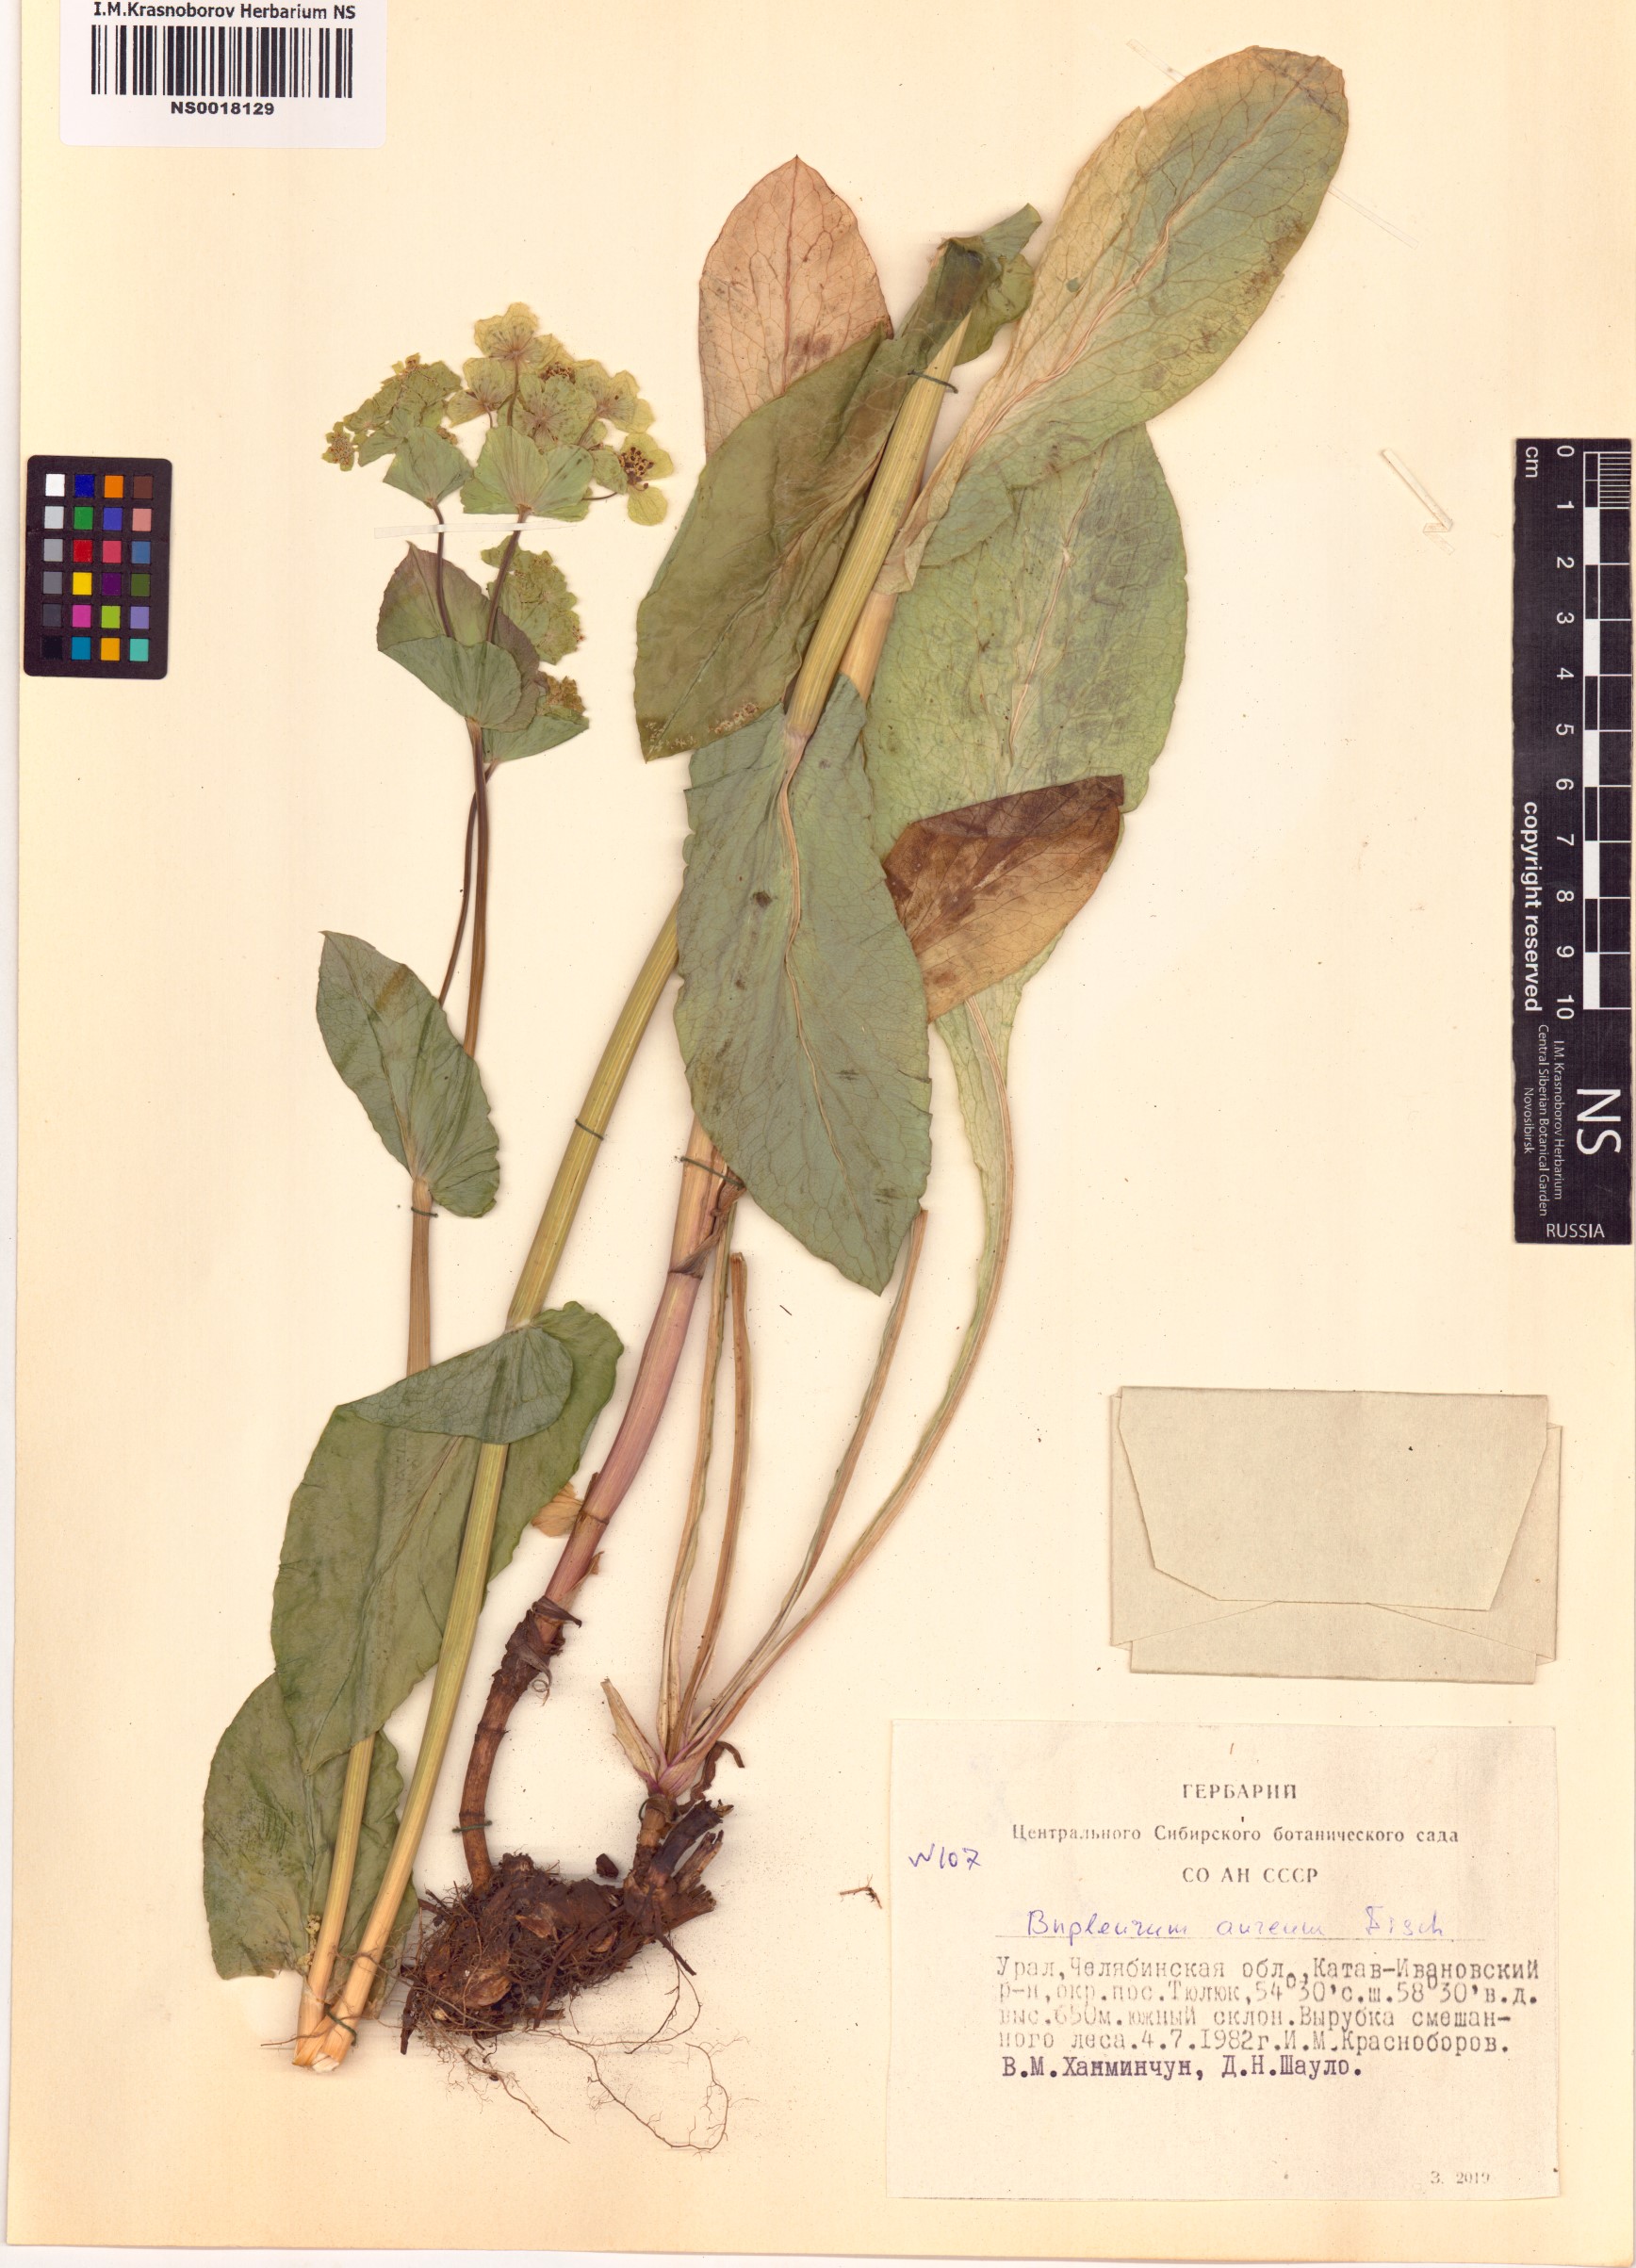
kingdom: Plantae
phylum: Tracheophyta
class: Magnoliopsida
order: Apiales
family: Apiaceae
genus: Bupleurum
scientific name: Bupleurum aureum
